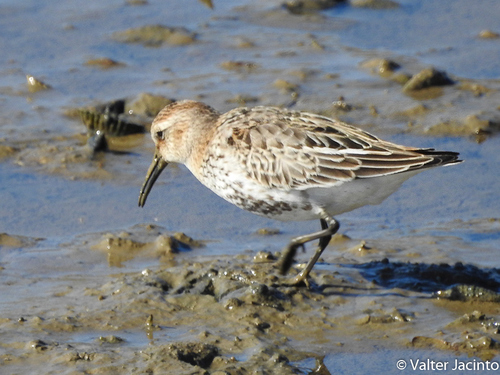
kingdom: Animalia
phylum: Chordata
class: Aves
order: Charadriiformes
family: Scolopacidae
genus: Calidris
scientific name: Calidris alpina
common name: Dunlin
